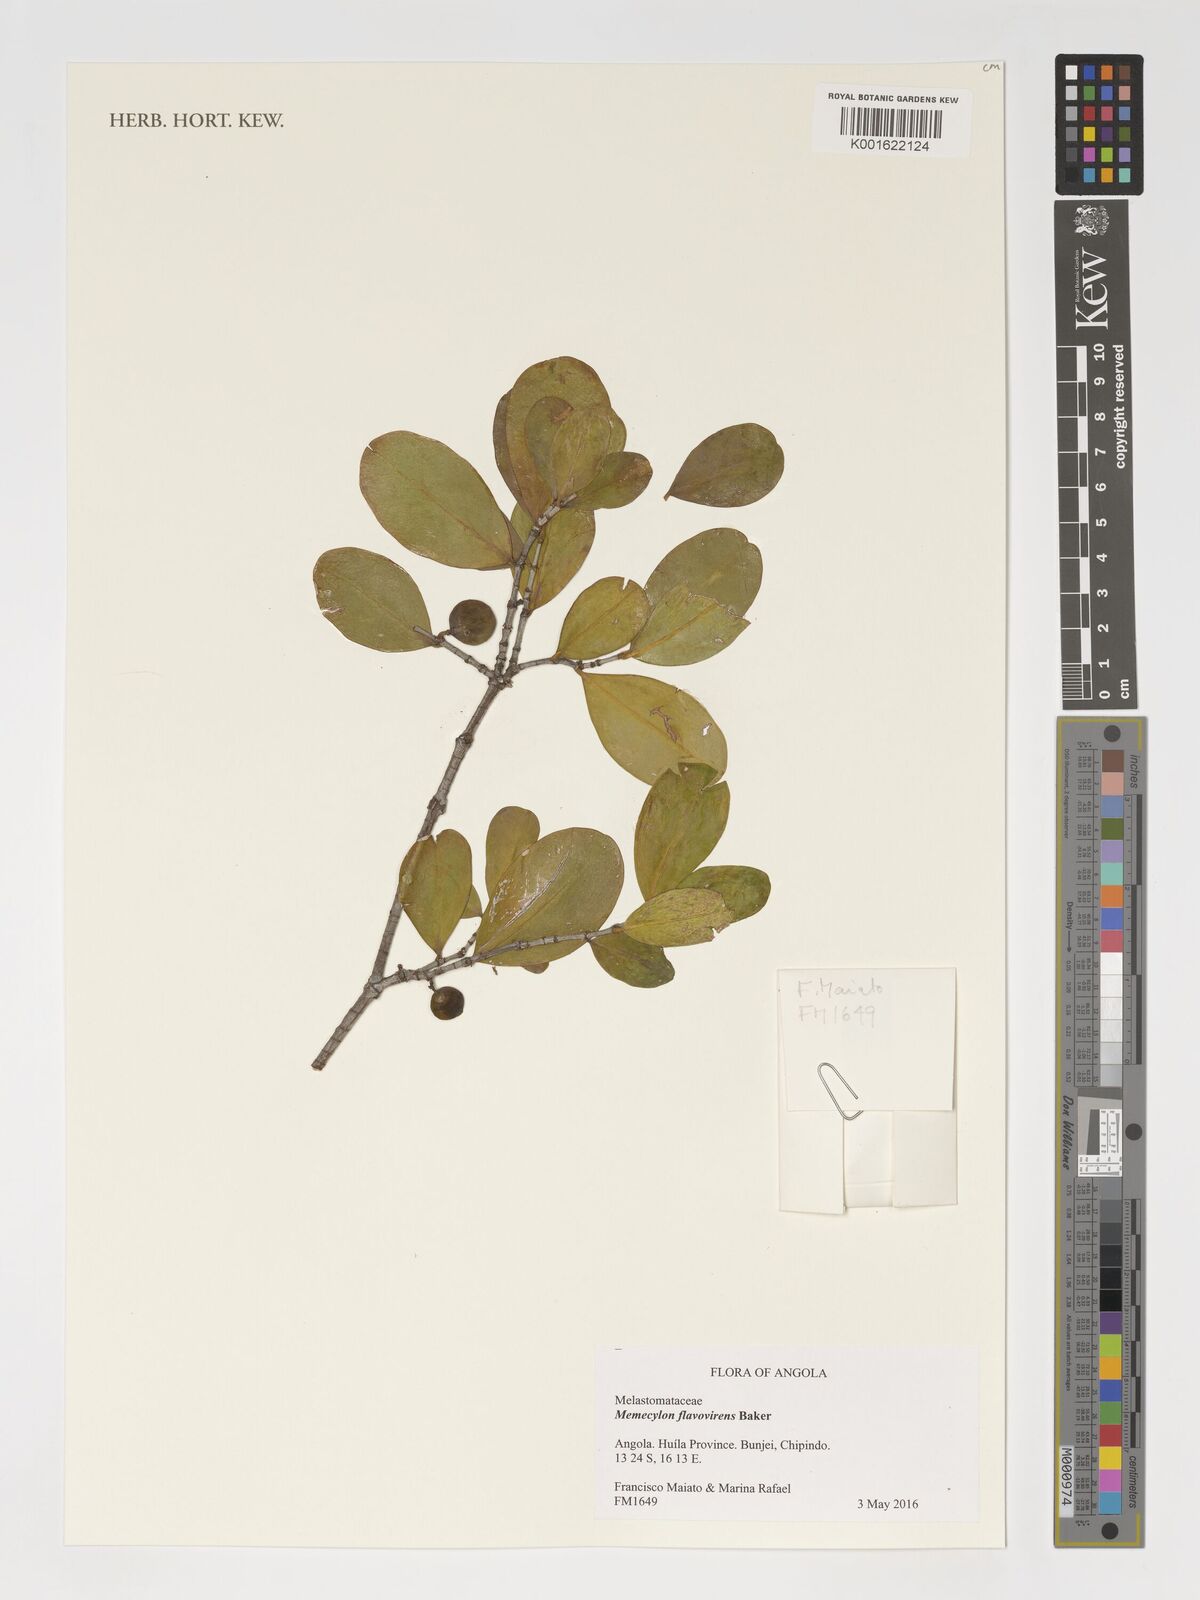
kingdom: Plantae
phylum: Tracheophyta
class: Magnoliopsida
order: Myrtales
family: Melastomataceae
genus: Memecylon
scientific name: Memecylon flavovirens
